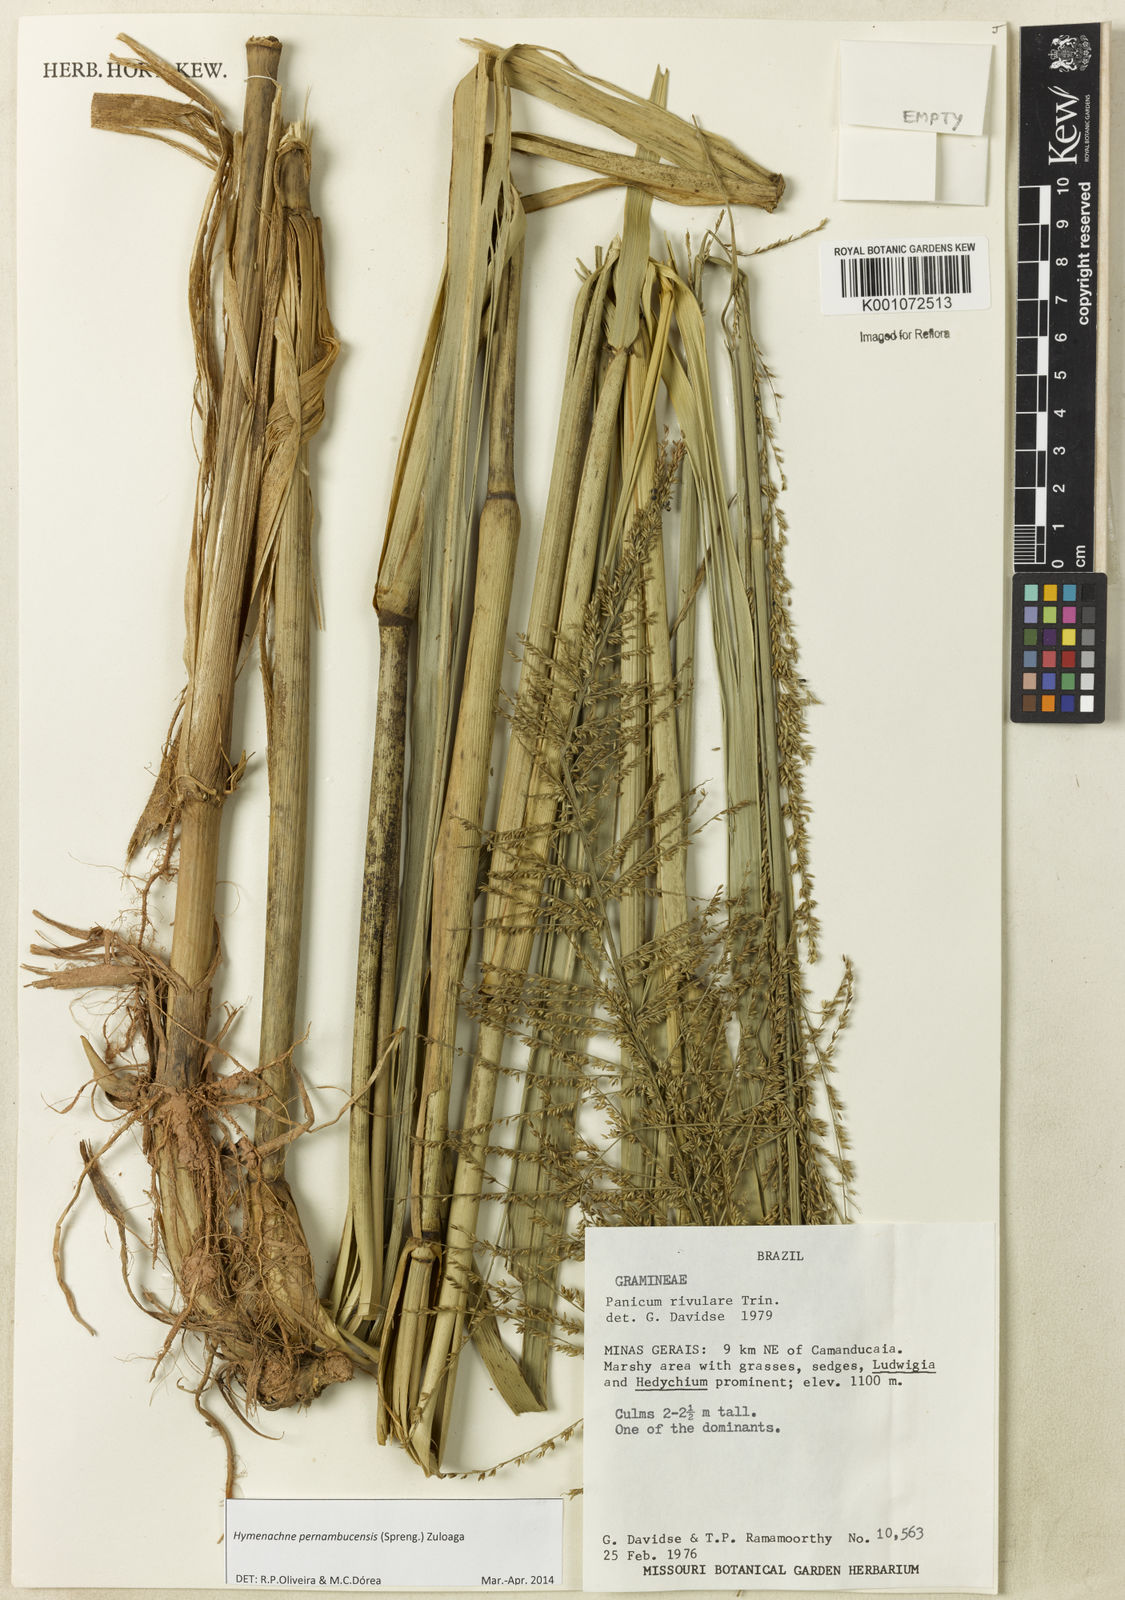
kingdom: Plantae
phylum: Tracheophyta
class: Liliopsida
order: Poales
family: Poaceae
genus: Hymenachne
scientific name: Hymenachne pernambucensis
